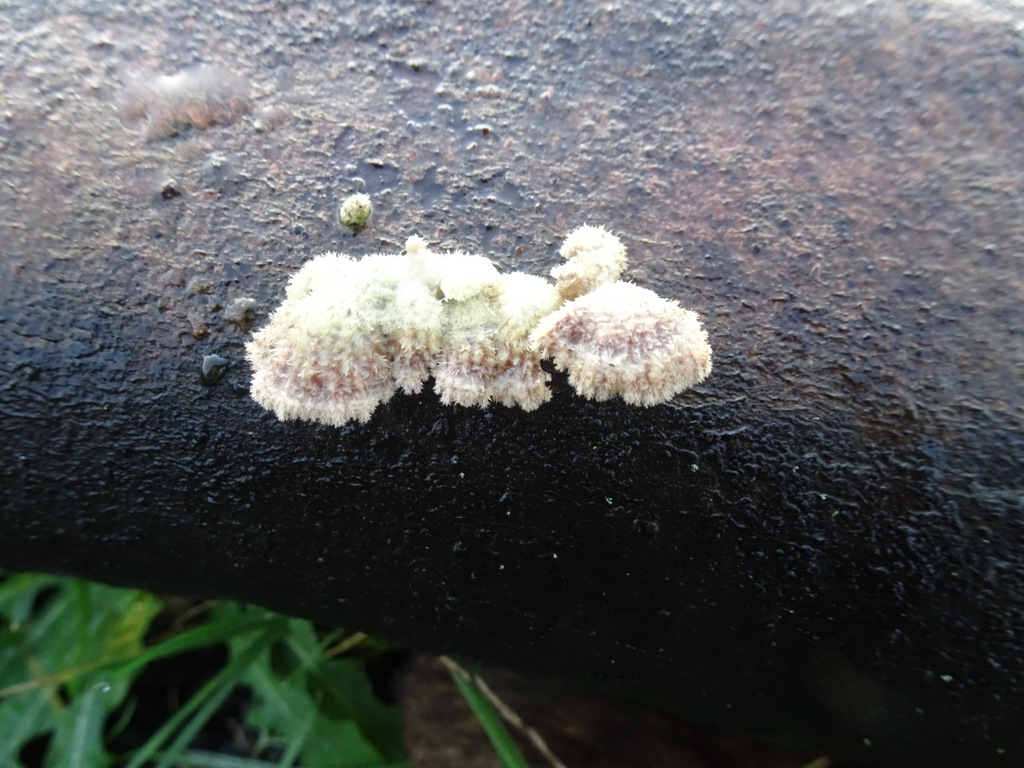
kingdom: Fungi
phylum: Basidiomycota
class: Agaricomycetes
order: Agaricales
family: Schizophyllaceae
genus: Schizophyllum
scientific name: Schizophyllum commune
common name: kløvblad
